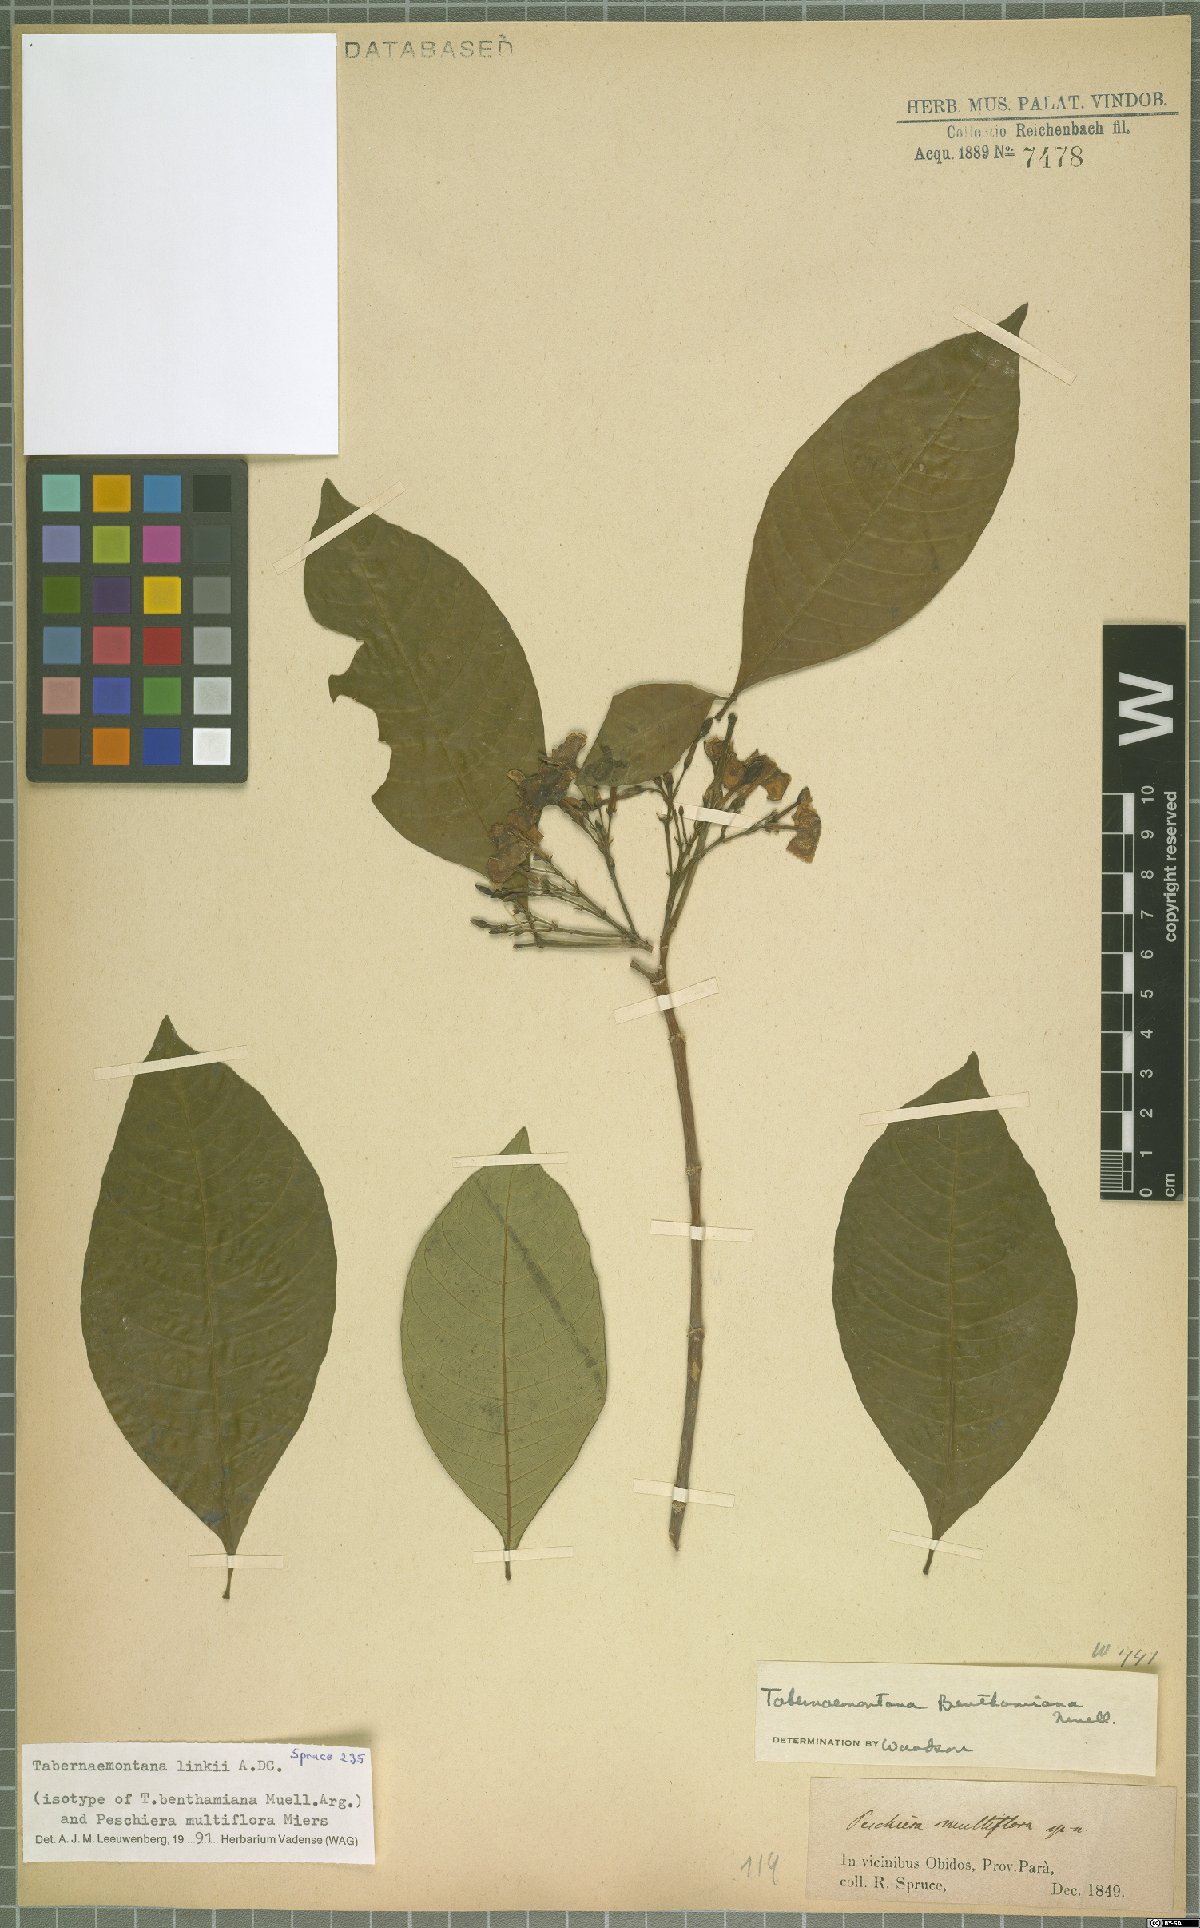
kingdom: Plantae
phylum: Tracheophyta
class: Magnoliopsida
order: Gentianales
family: Apocynaceae
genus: Tabernaemontana
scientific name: Tabernaemontana linkii
